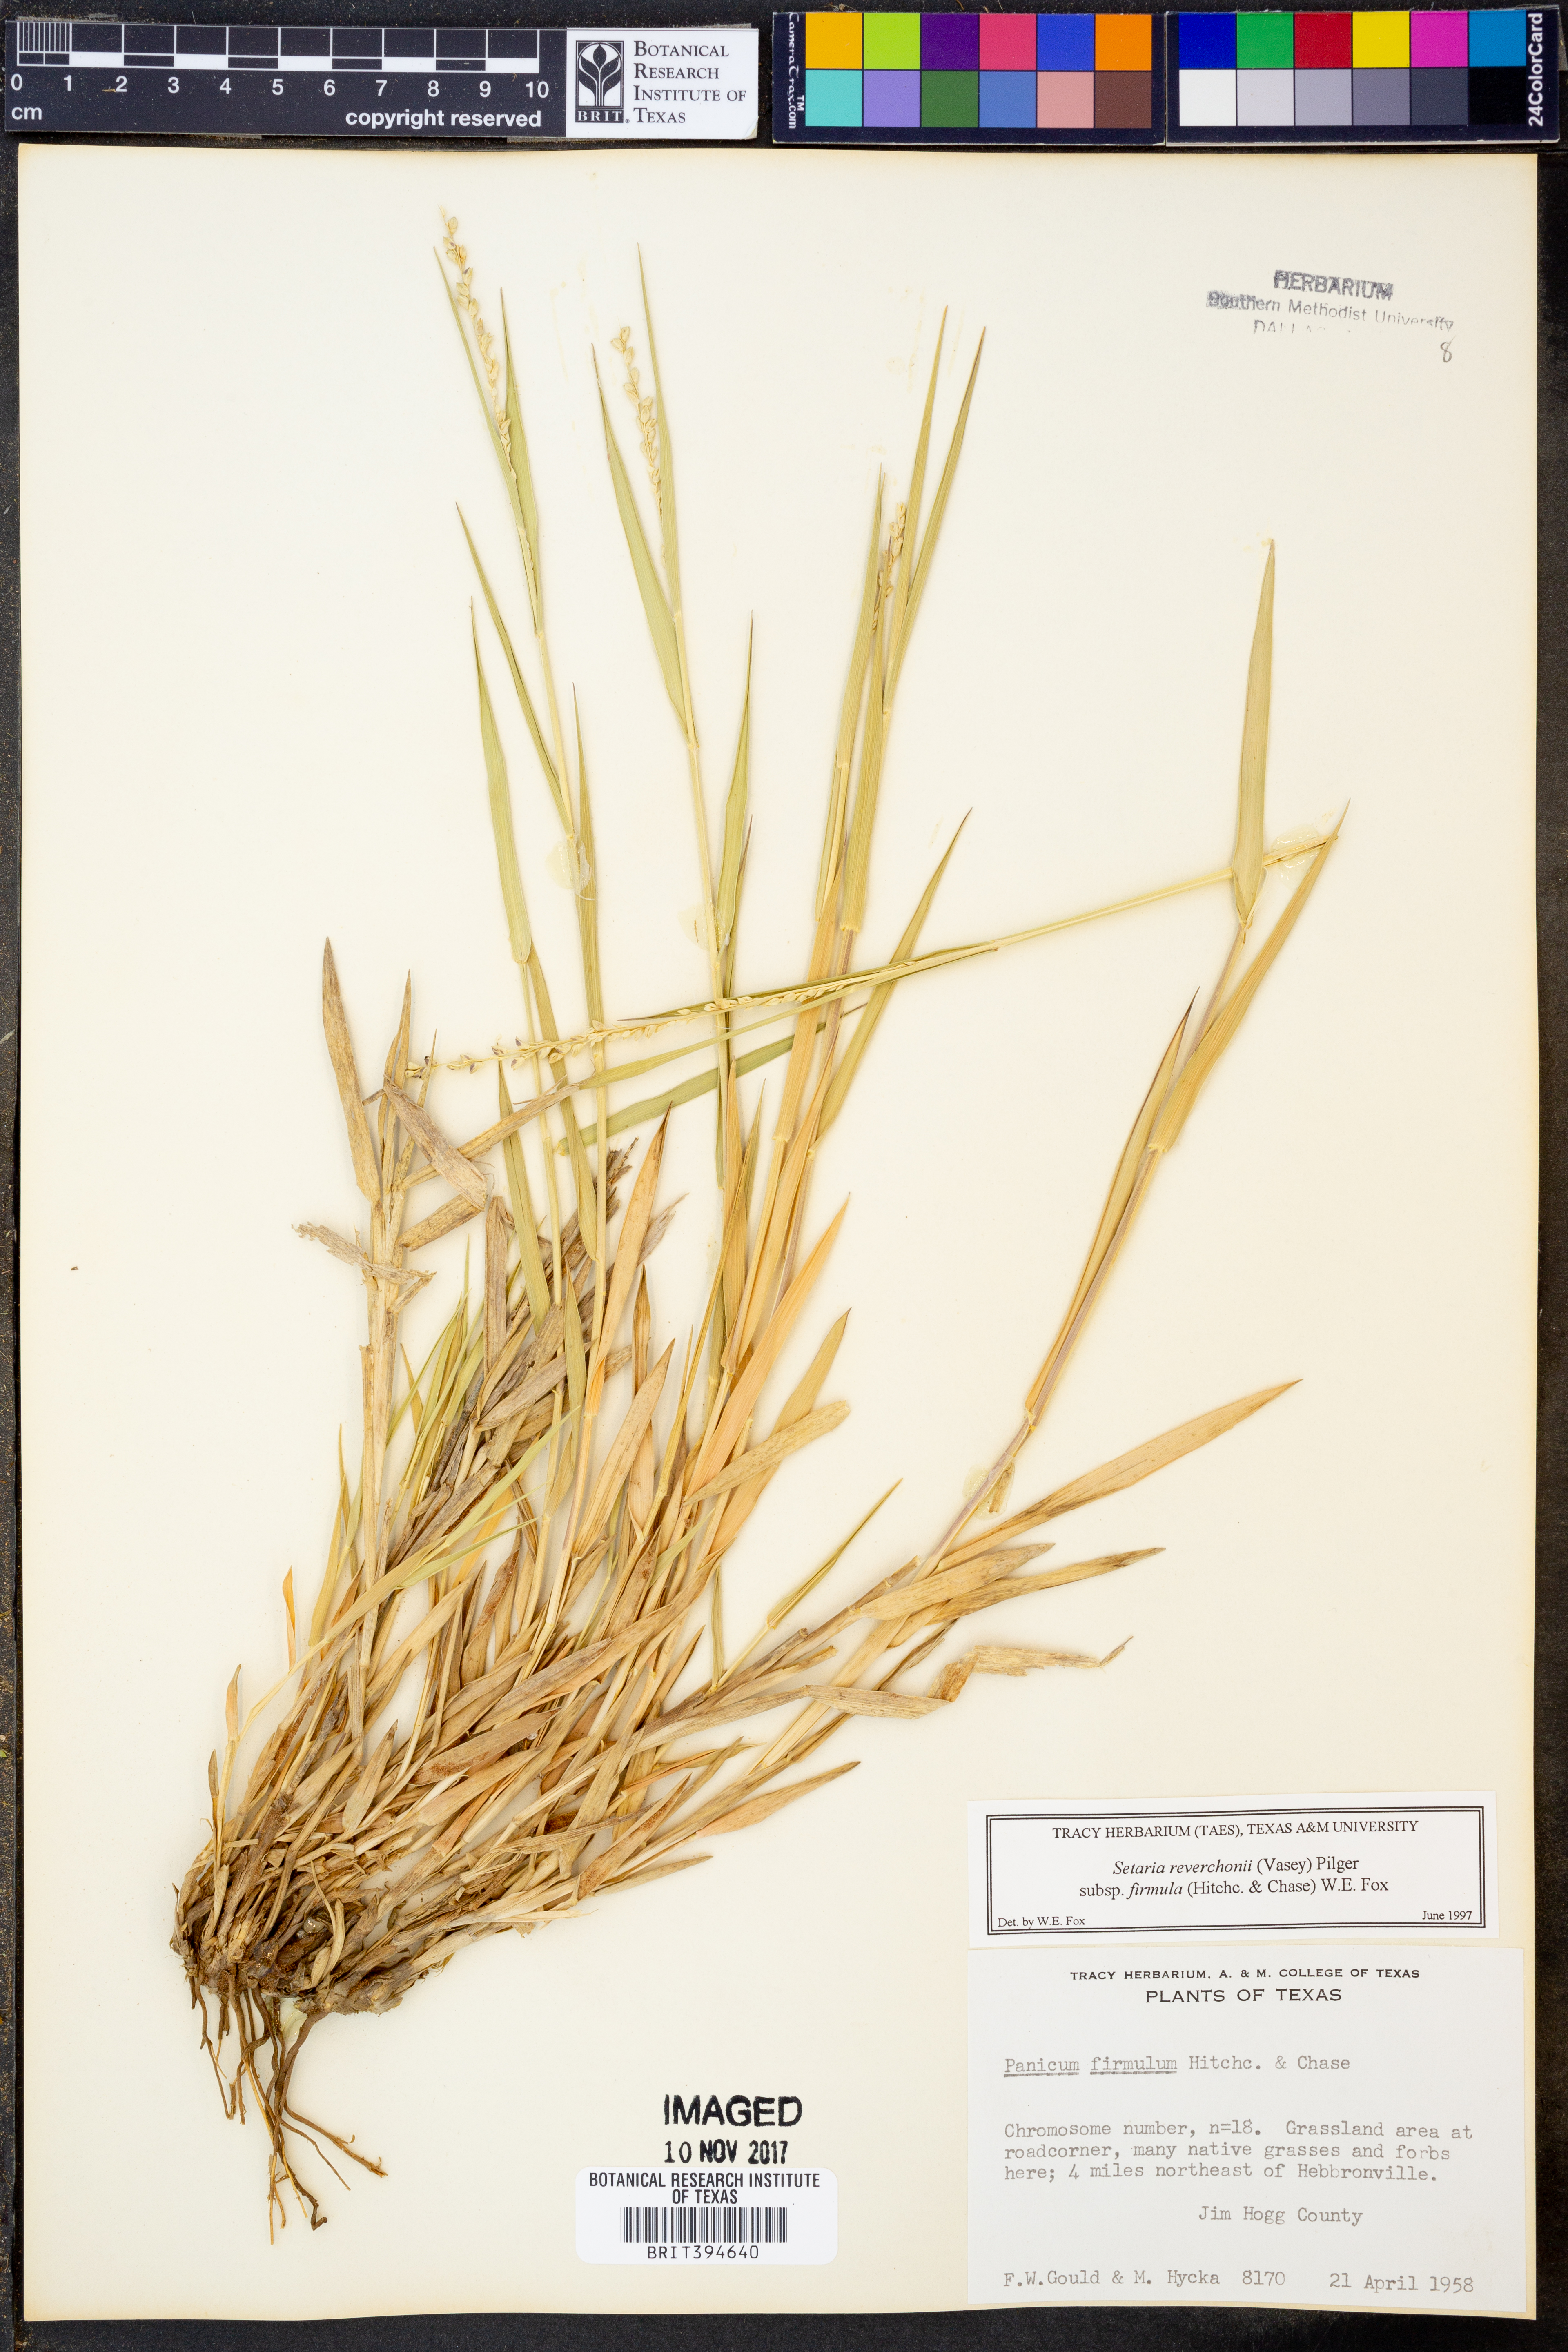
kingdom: Plantae
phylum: Tracheophyta
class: Liliopsida
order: Poales
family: Poaceae
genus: Setaria
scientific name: Setaria reverchonii
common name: Reverchon's bristle grass
